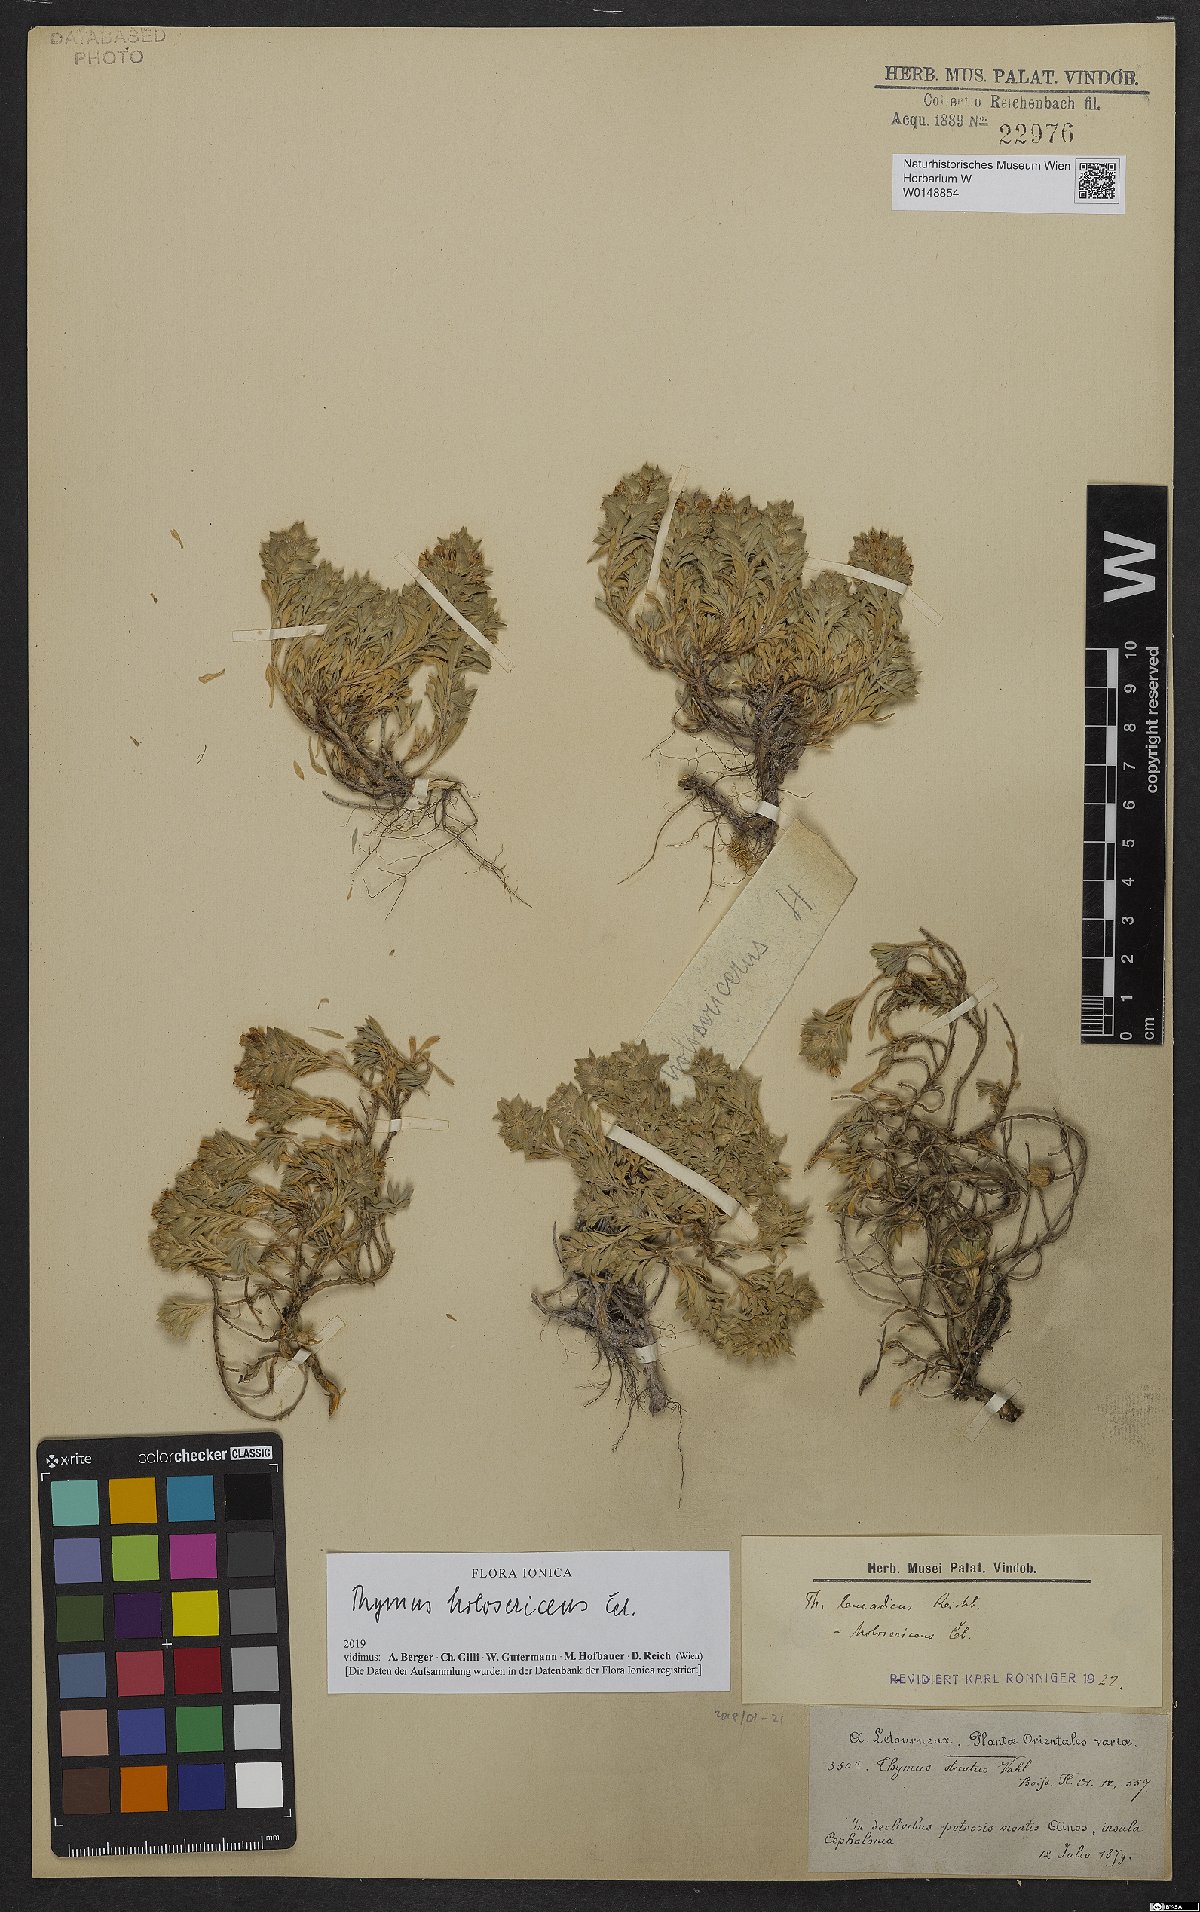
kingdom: Plantae
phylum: Tracheophyta
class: Magnoliopsida
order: Lamiales
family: Lamiaceae
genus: Thymus
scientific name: Thymus holosericeus
